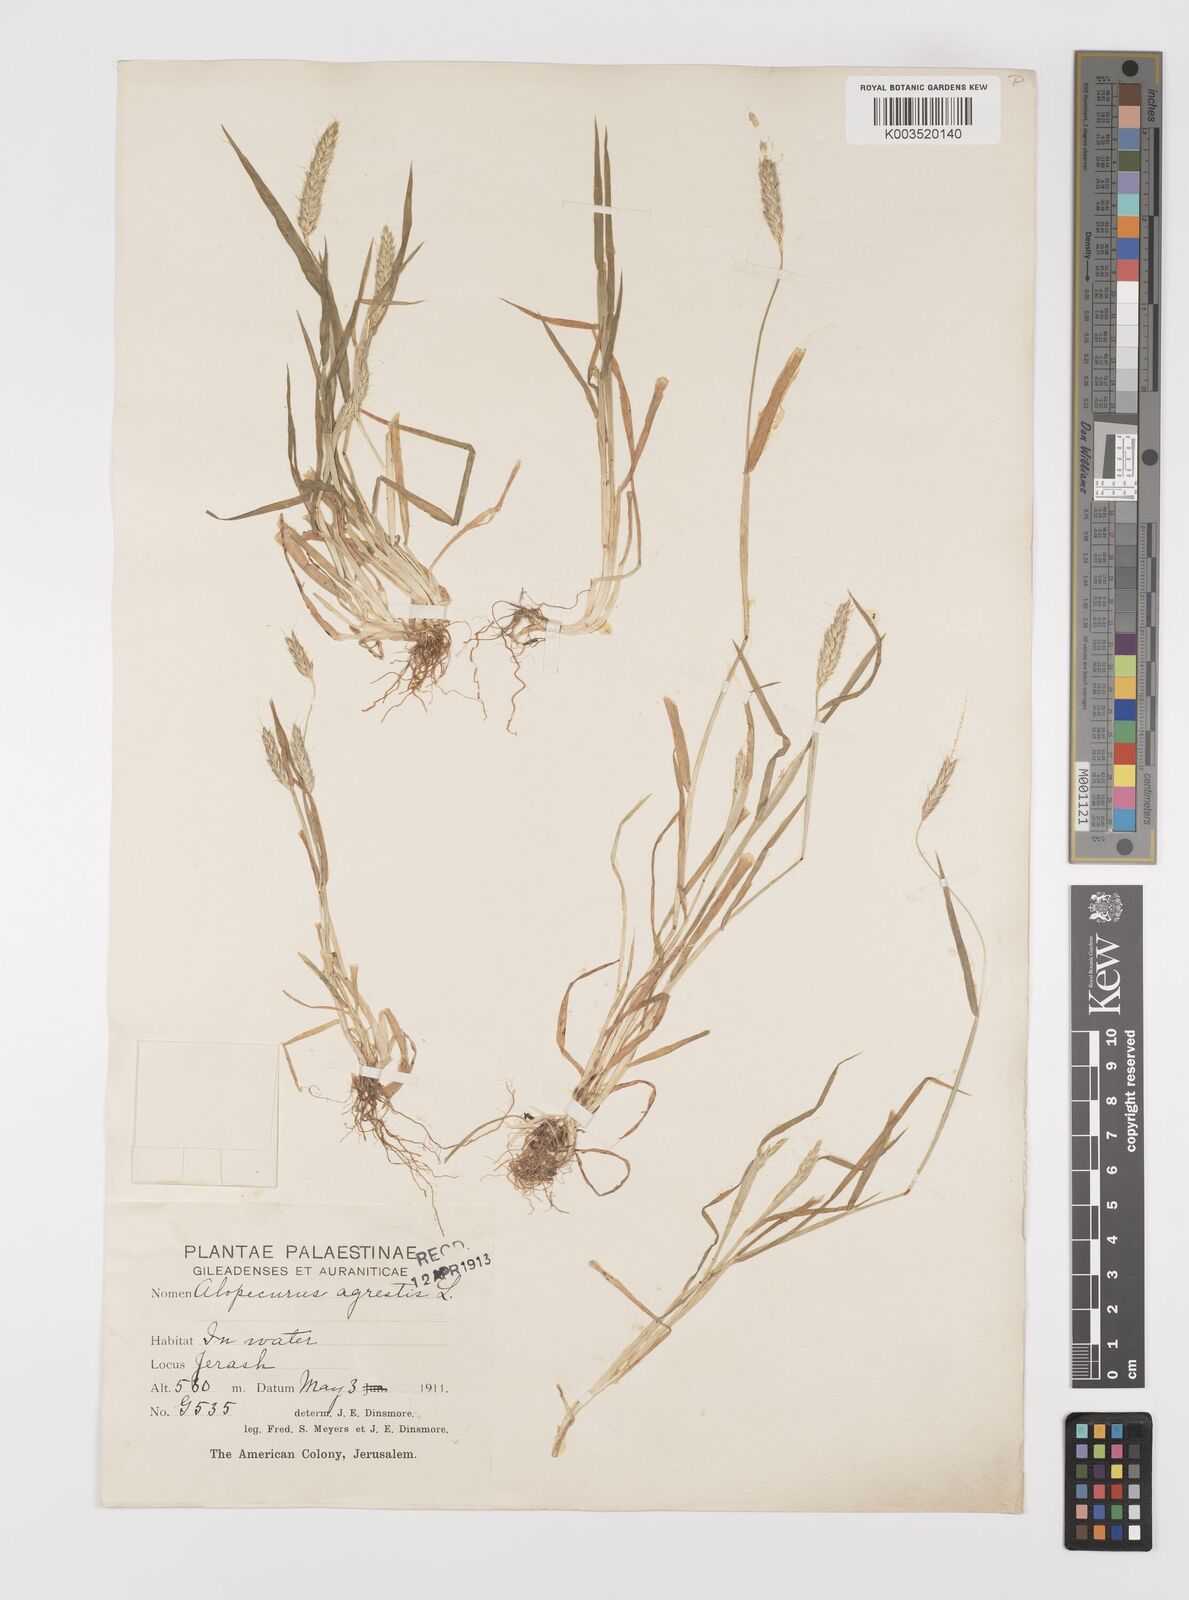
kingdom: Plantae
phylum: Tracheophyta
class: Liliopsida
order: Poales
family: Poaceae
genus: Alopecurus
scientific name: Alopecurus myosuroides
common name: Black-grass
